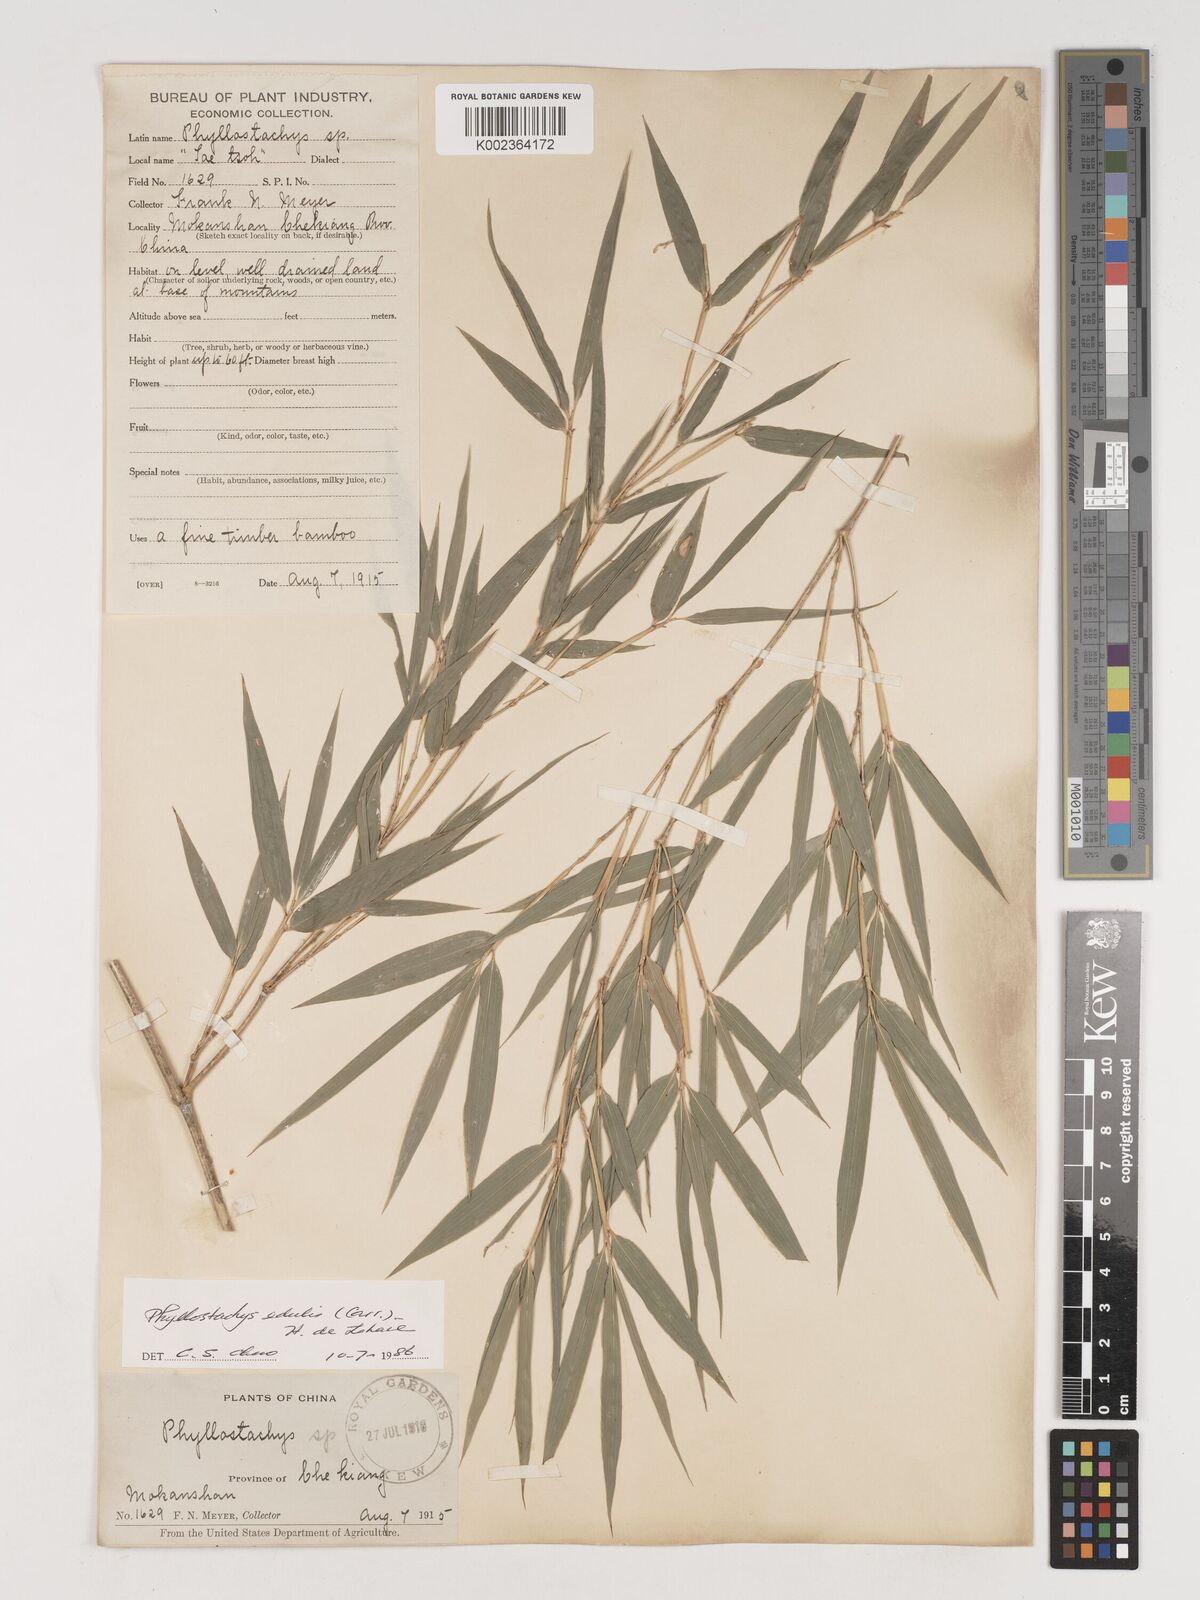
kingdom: Plantae
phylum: Tracheophyta
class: Liliopsida
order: Poales
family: Poaceae
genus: Phyllostachys
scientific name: Phyllostachys nidularia
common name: Broom bamboo
